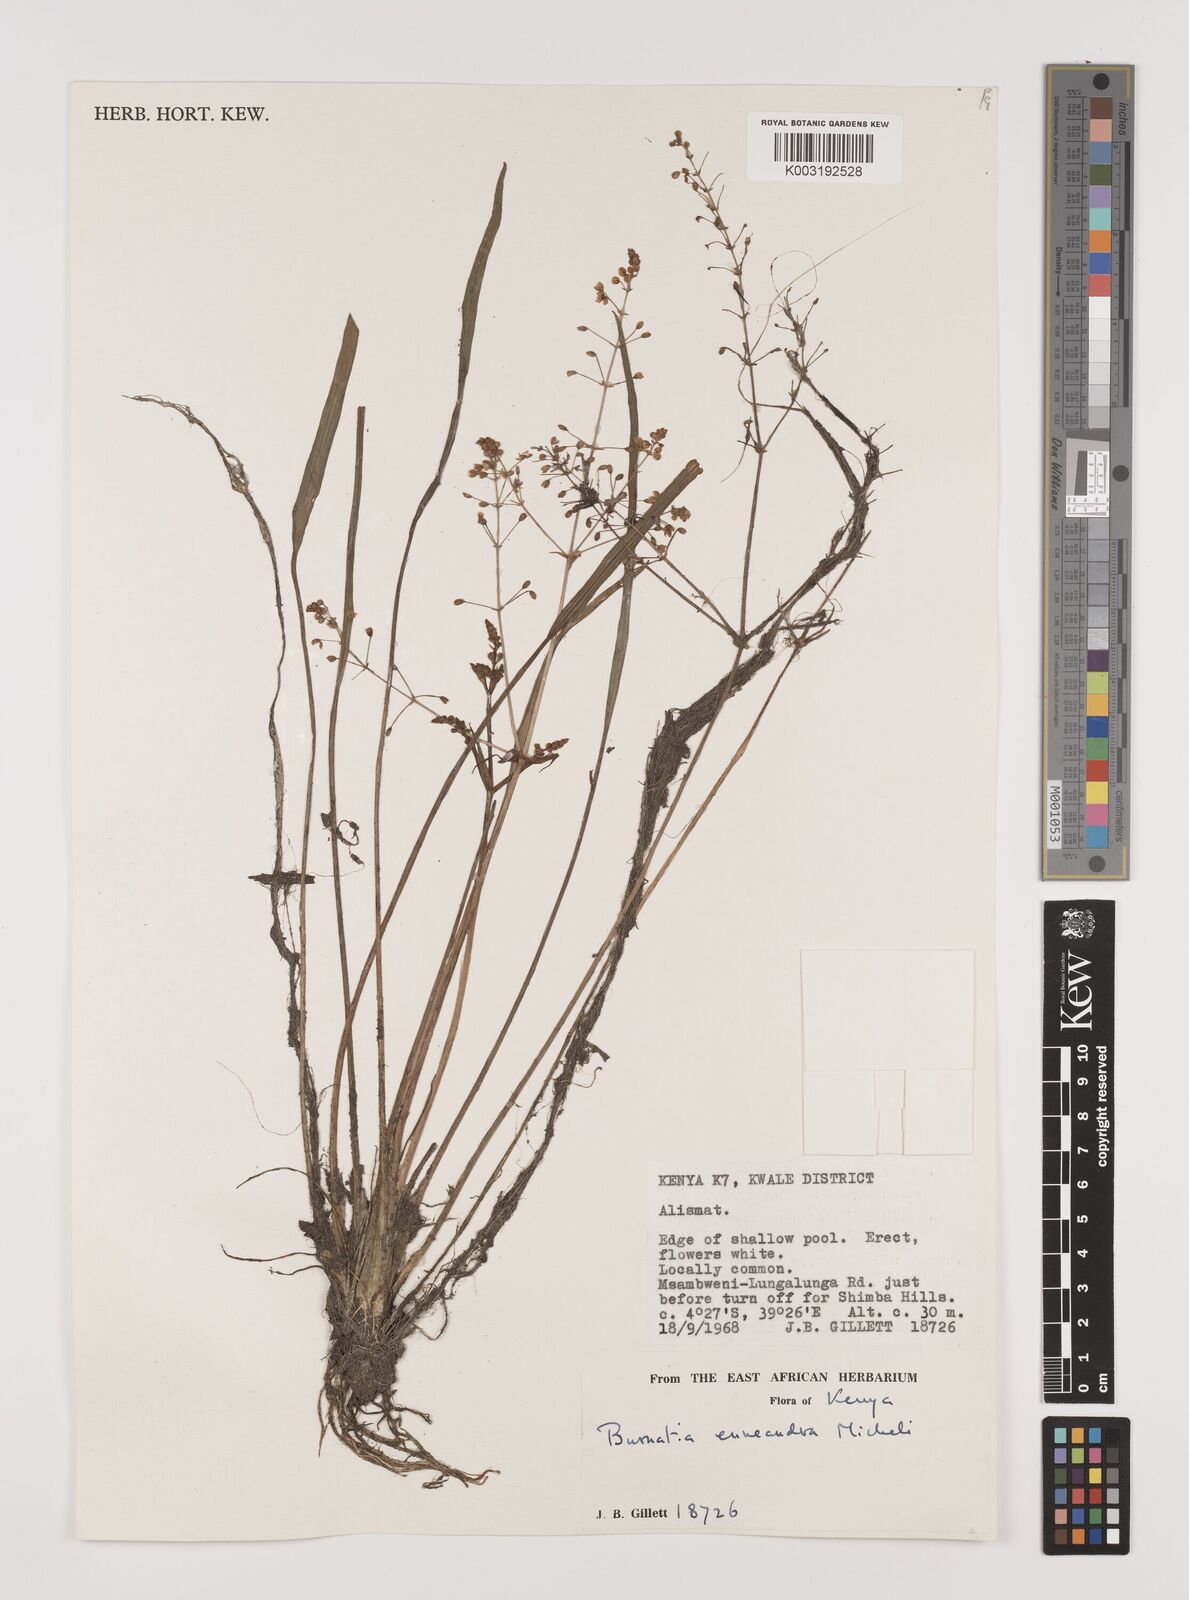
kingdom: Plantae
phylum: Tracheophyta
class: Liliopsida
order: Alismatales
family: Alismataceae
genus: Burnatia
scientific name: Burnatia enneandra
